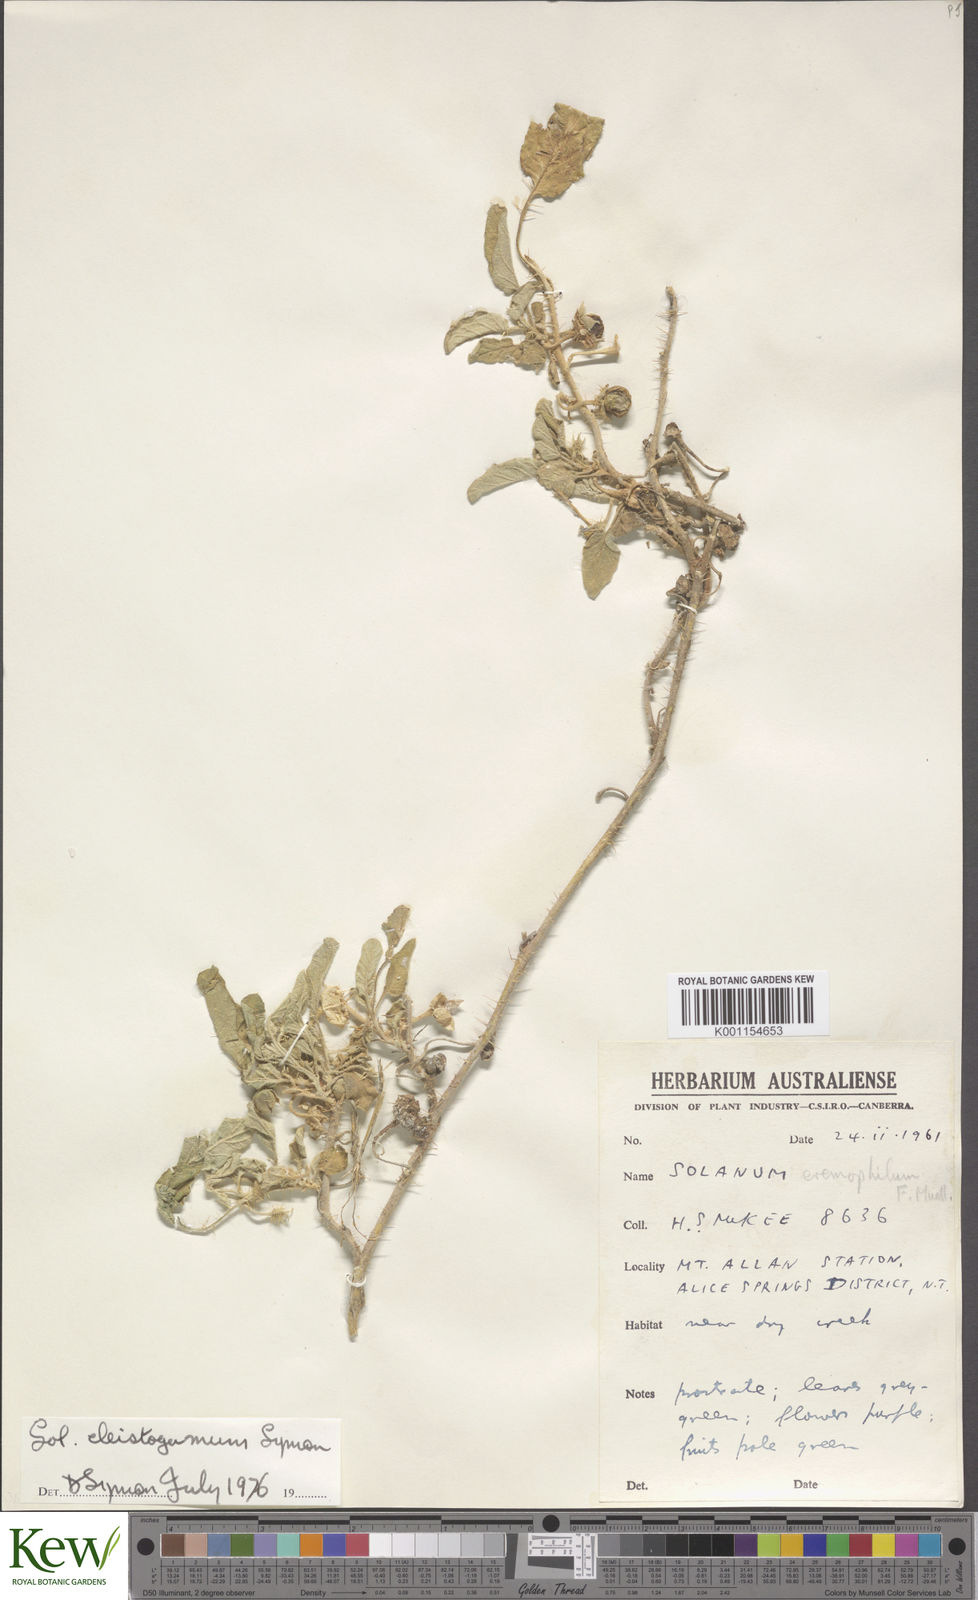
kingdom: Plantae
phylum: Tracheophyta
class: Magnoliopsida
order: Solanales
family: Solanaceae
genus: Solanum
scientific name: Solanum cleistogamum
